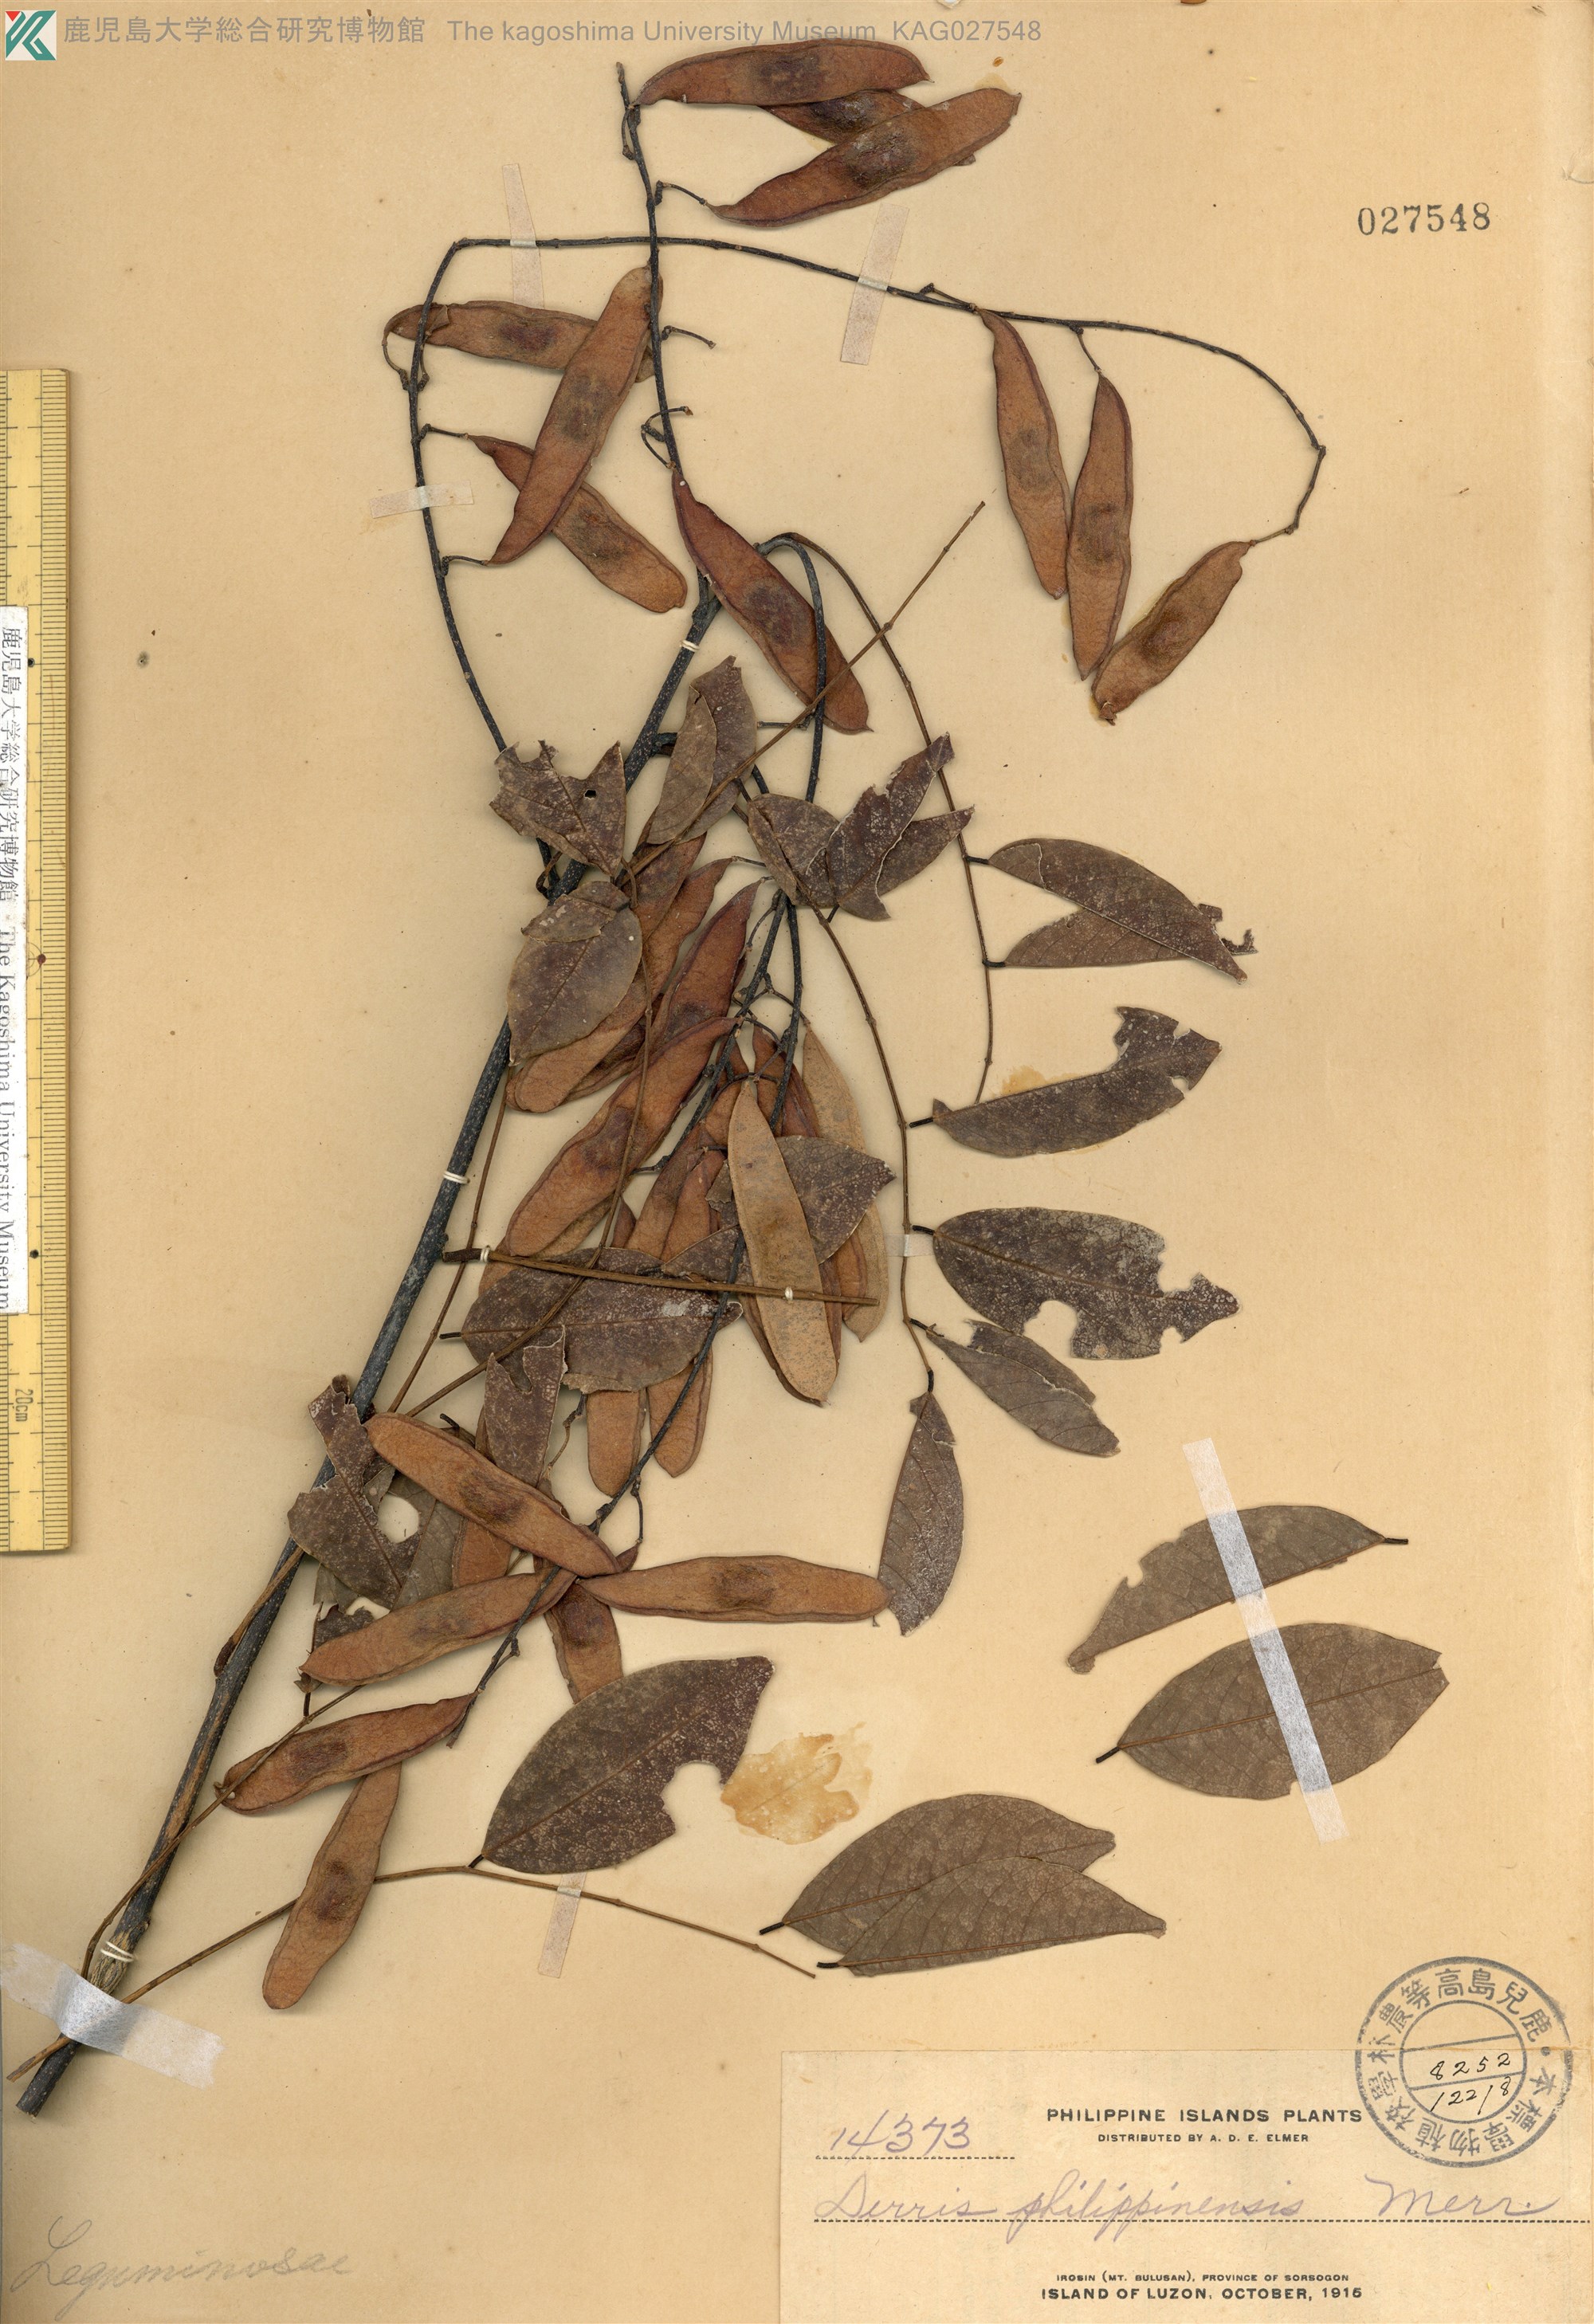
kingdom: Plantae
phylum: Tracheophyta
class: Magnoliopsida
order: Fabales
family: Fabaceae
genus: Deguelia
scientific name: Deguelia scandens
